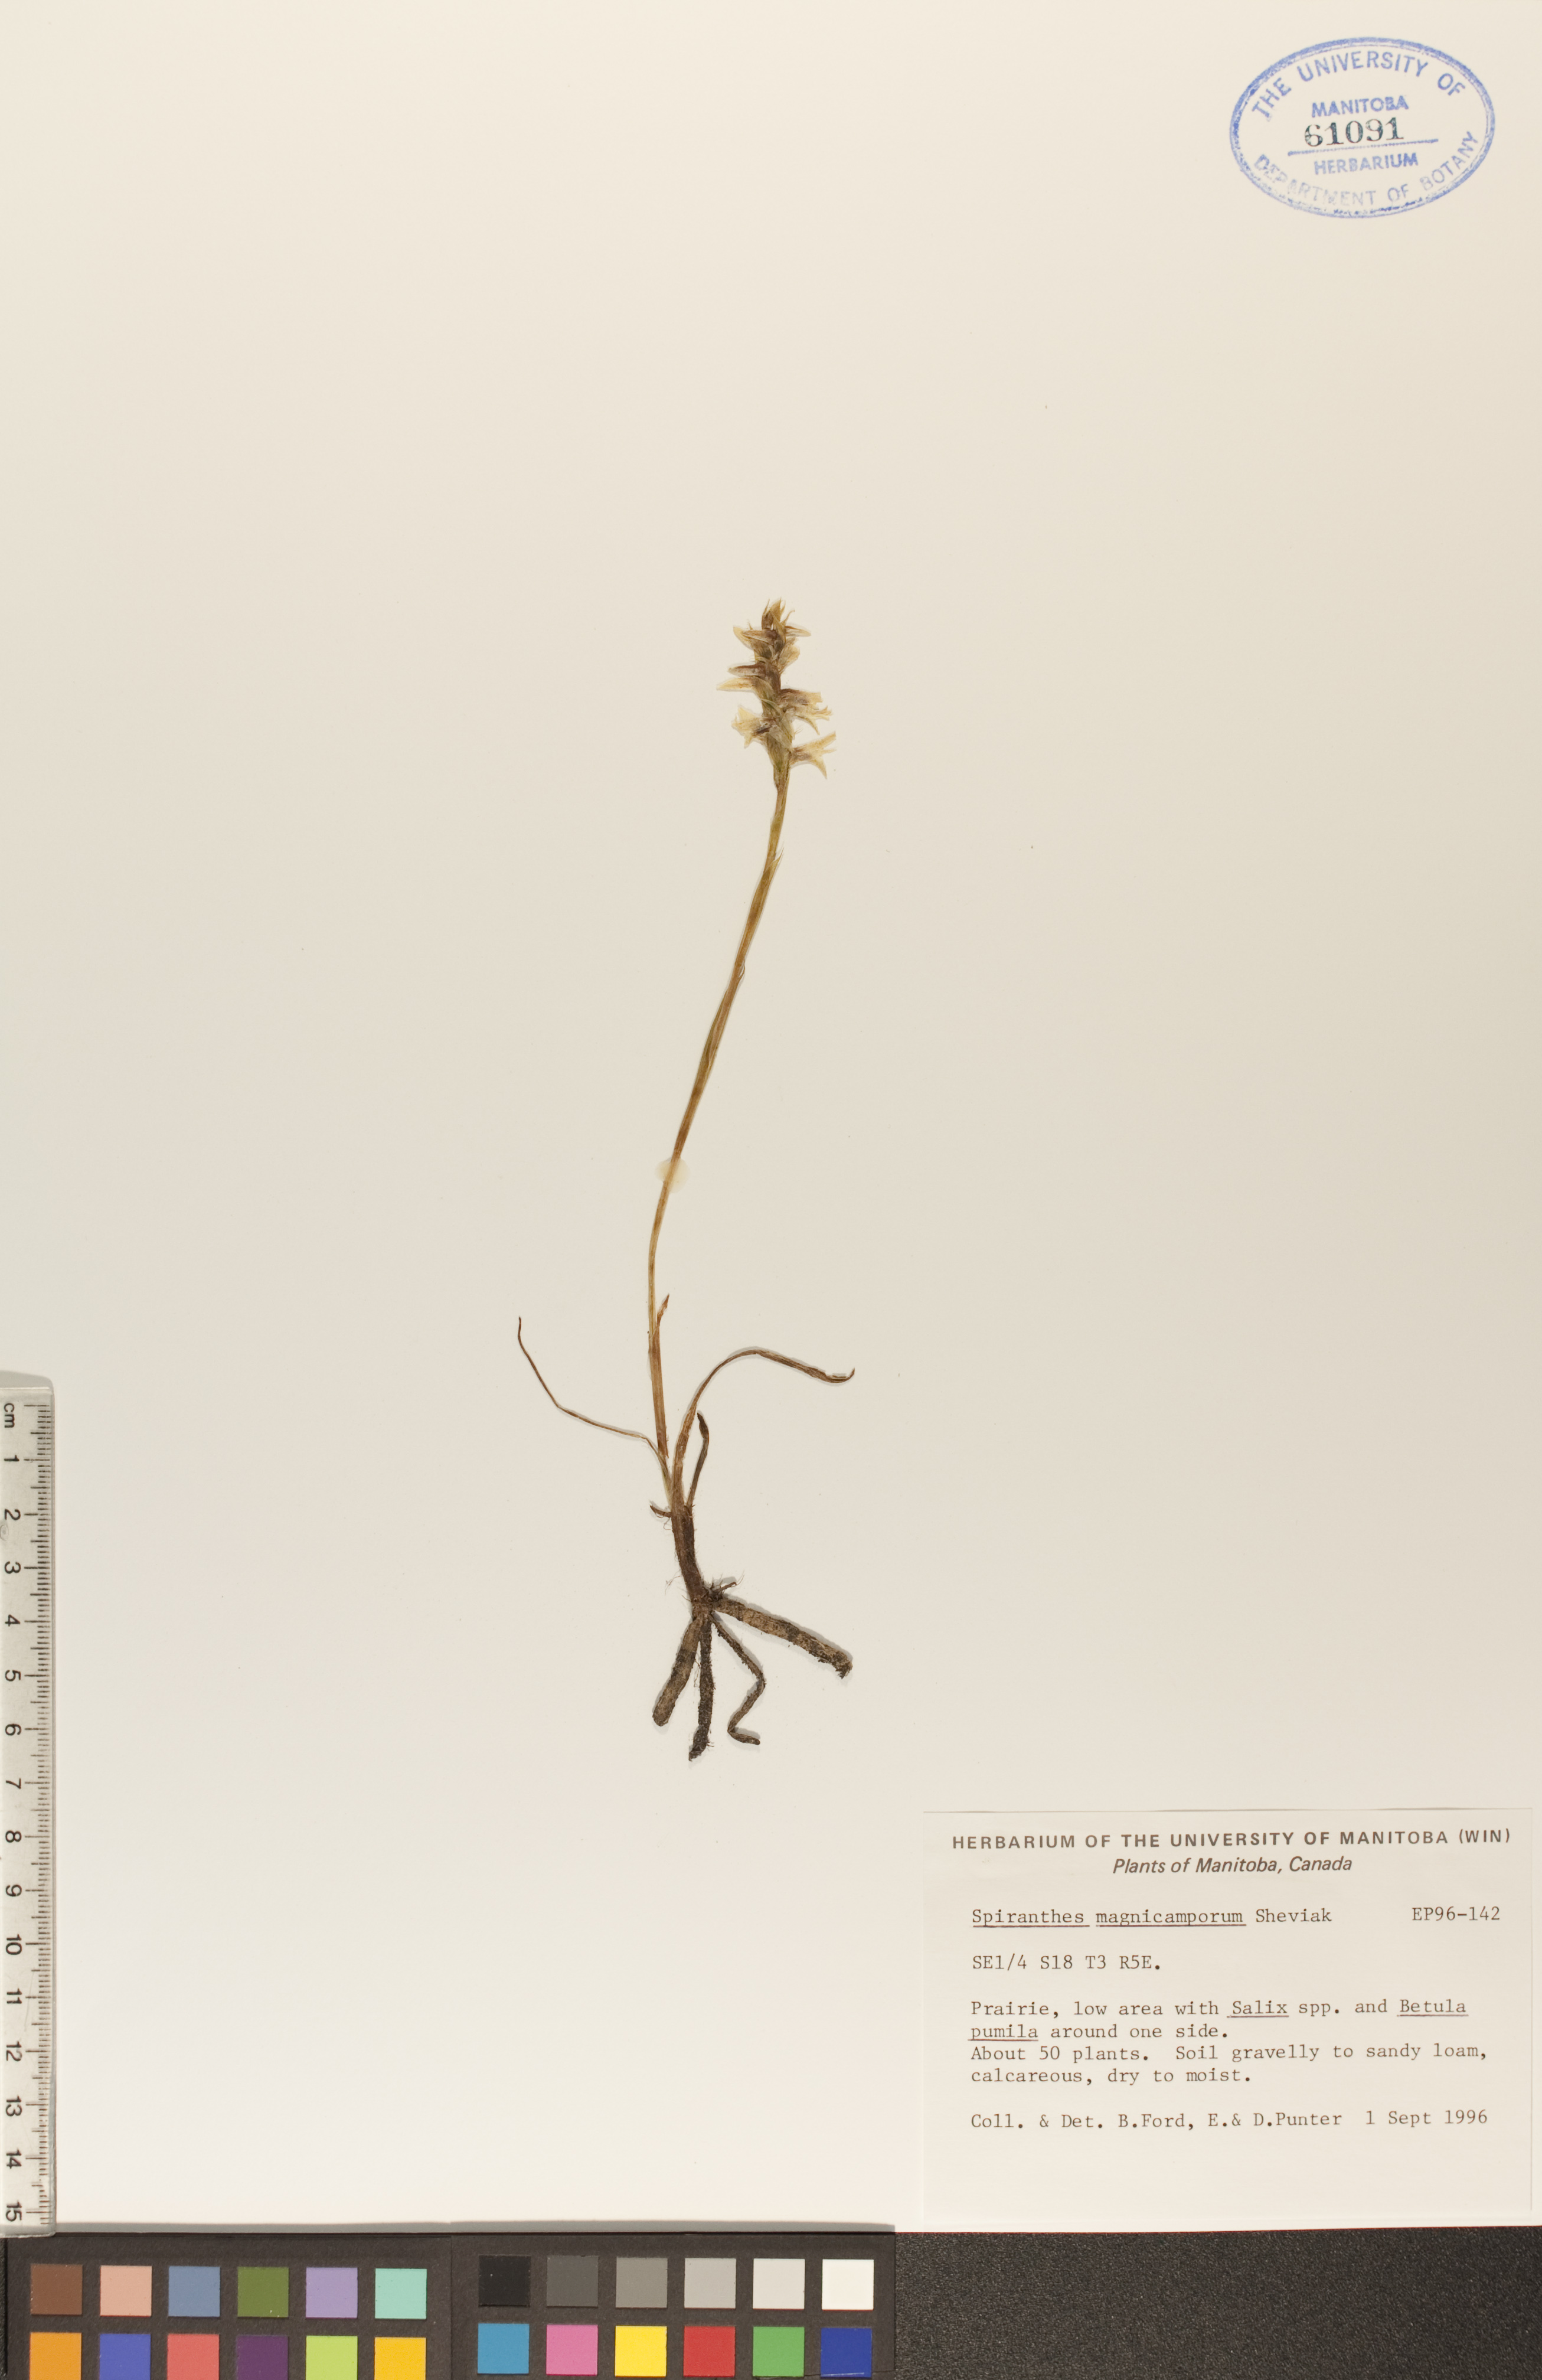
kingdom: Plantae
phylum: Tracheophyta
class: Liliopsida
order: Asparagales
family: Orchidaceae
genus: Spiranthes
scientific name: Spiranthes magnicamporum
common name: Great plains ladies'-tresses
